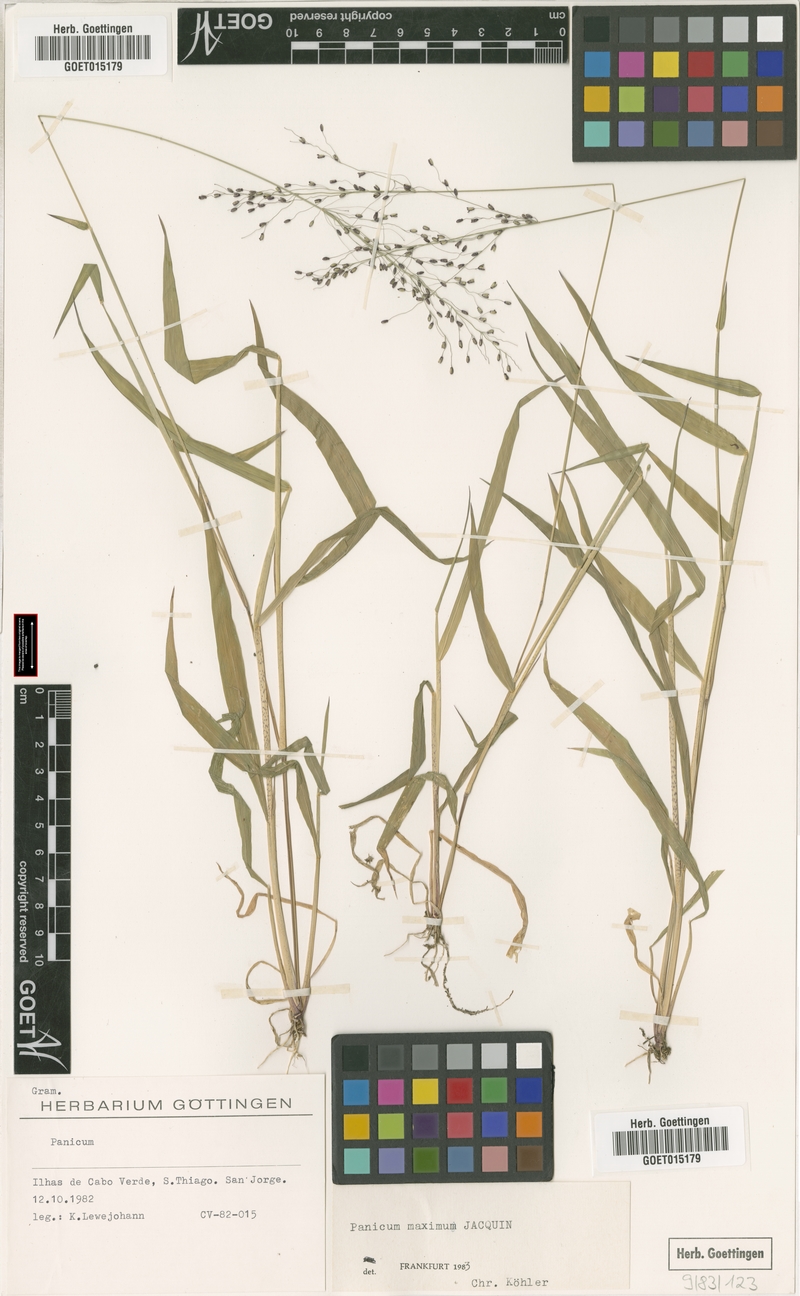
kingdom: Plantae
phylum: Tracheophyta
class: Liliopsida
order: Poales
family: Poaceae
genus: Megathyrsus
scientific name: Megathyrsus maximus
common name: Guineagrass
